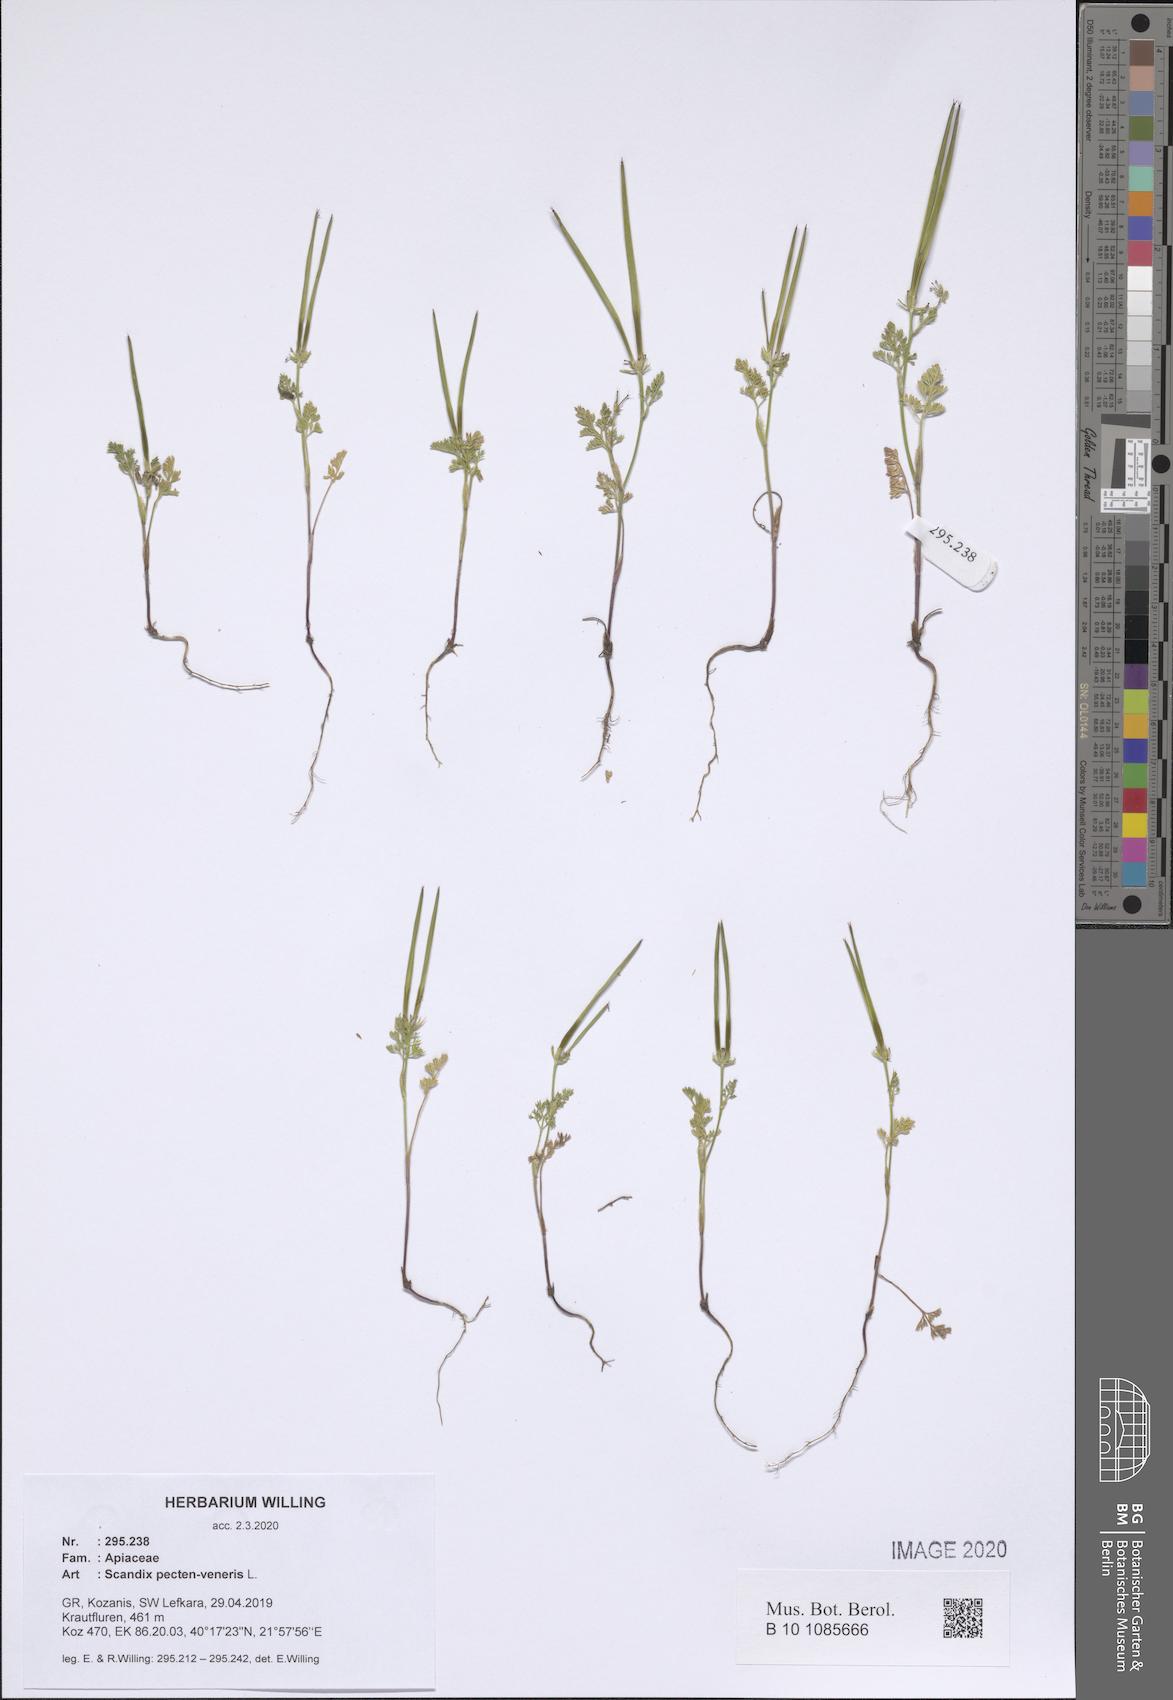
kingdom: Plantae
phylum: Tracheophyta
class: Magnoliopsida
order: Apiales
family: Apiaceae
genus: Scandix
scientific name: Scandix pecten-veneris
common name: Shepherd's-needle
